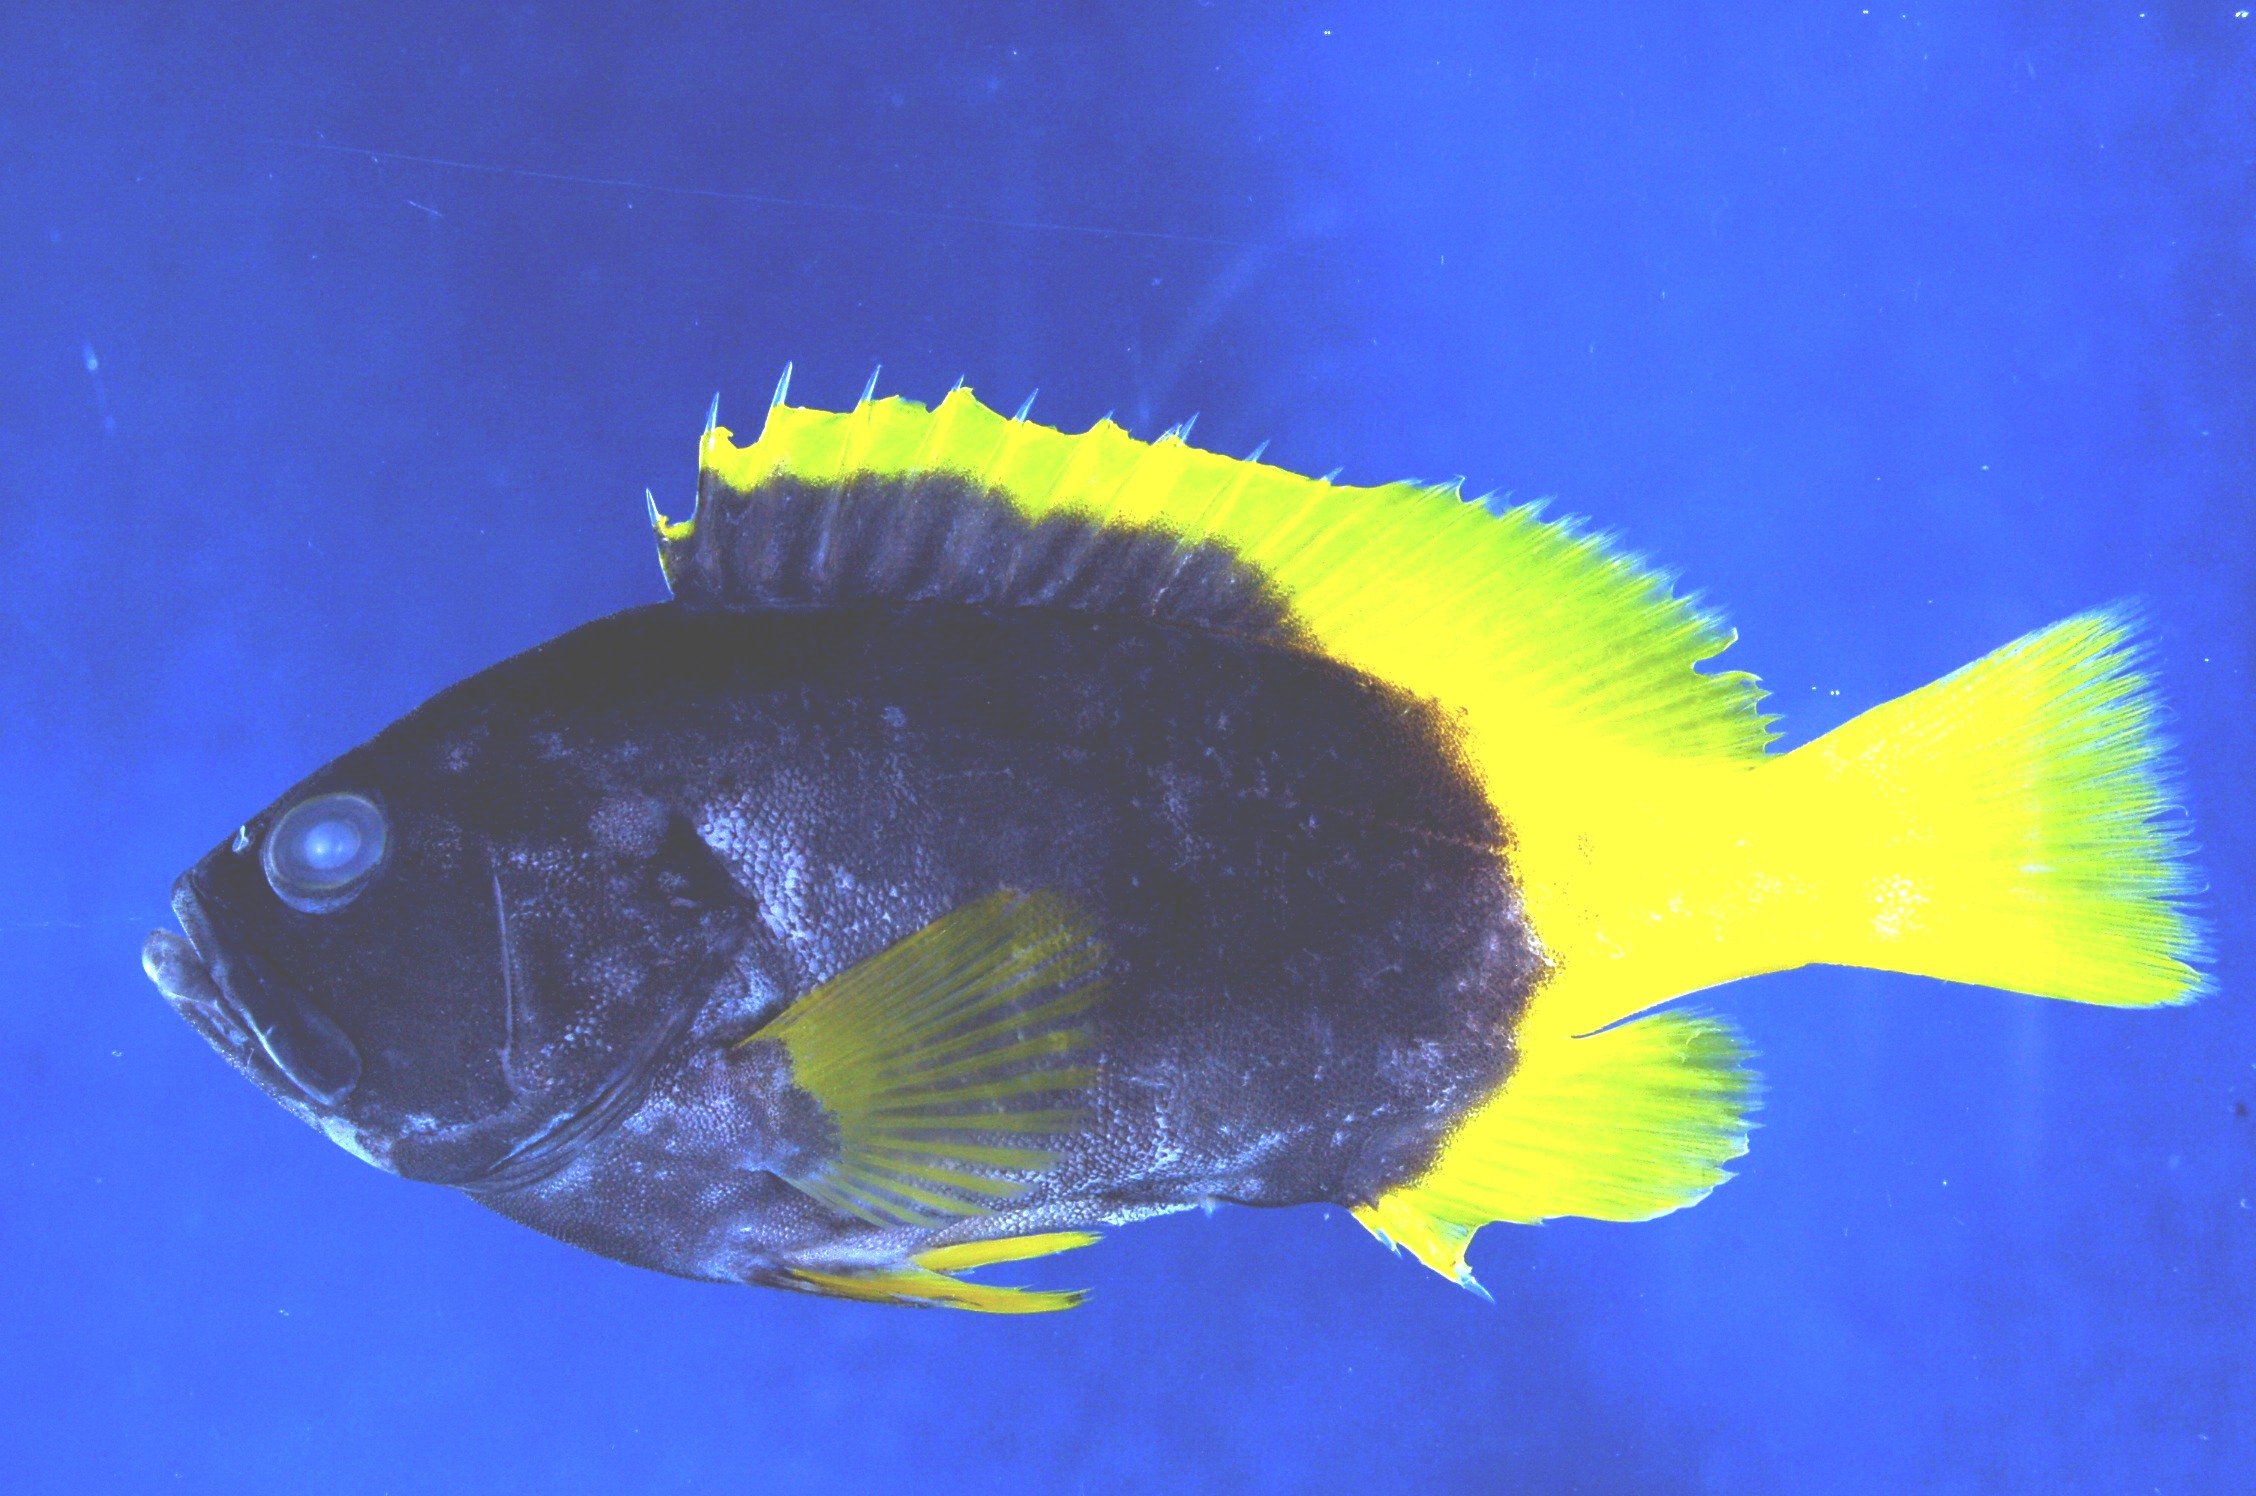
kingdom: Animalia
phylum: Chordata
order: Perciformes
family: Serranidae
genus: Epinephelus
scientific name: Epinephelus flavocaeruleus
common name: Blue and yellow grouper
